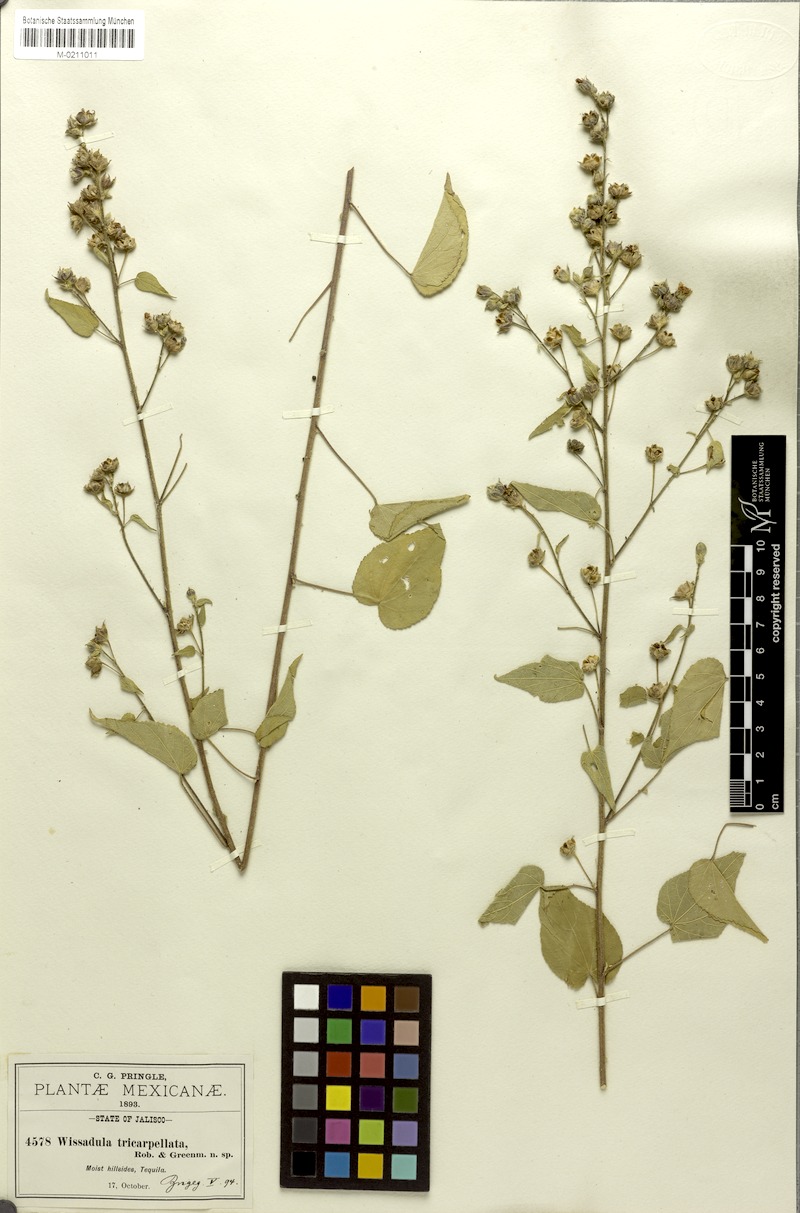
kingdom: Plantae
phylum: Tracheophyta
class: Magnoliopsida
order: Malvales
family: Malvaceae
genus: Bastardiastrum
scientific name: Bastardiastrum tricarpellatum
